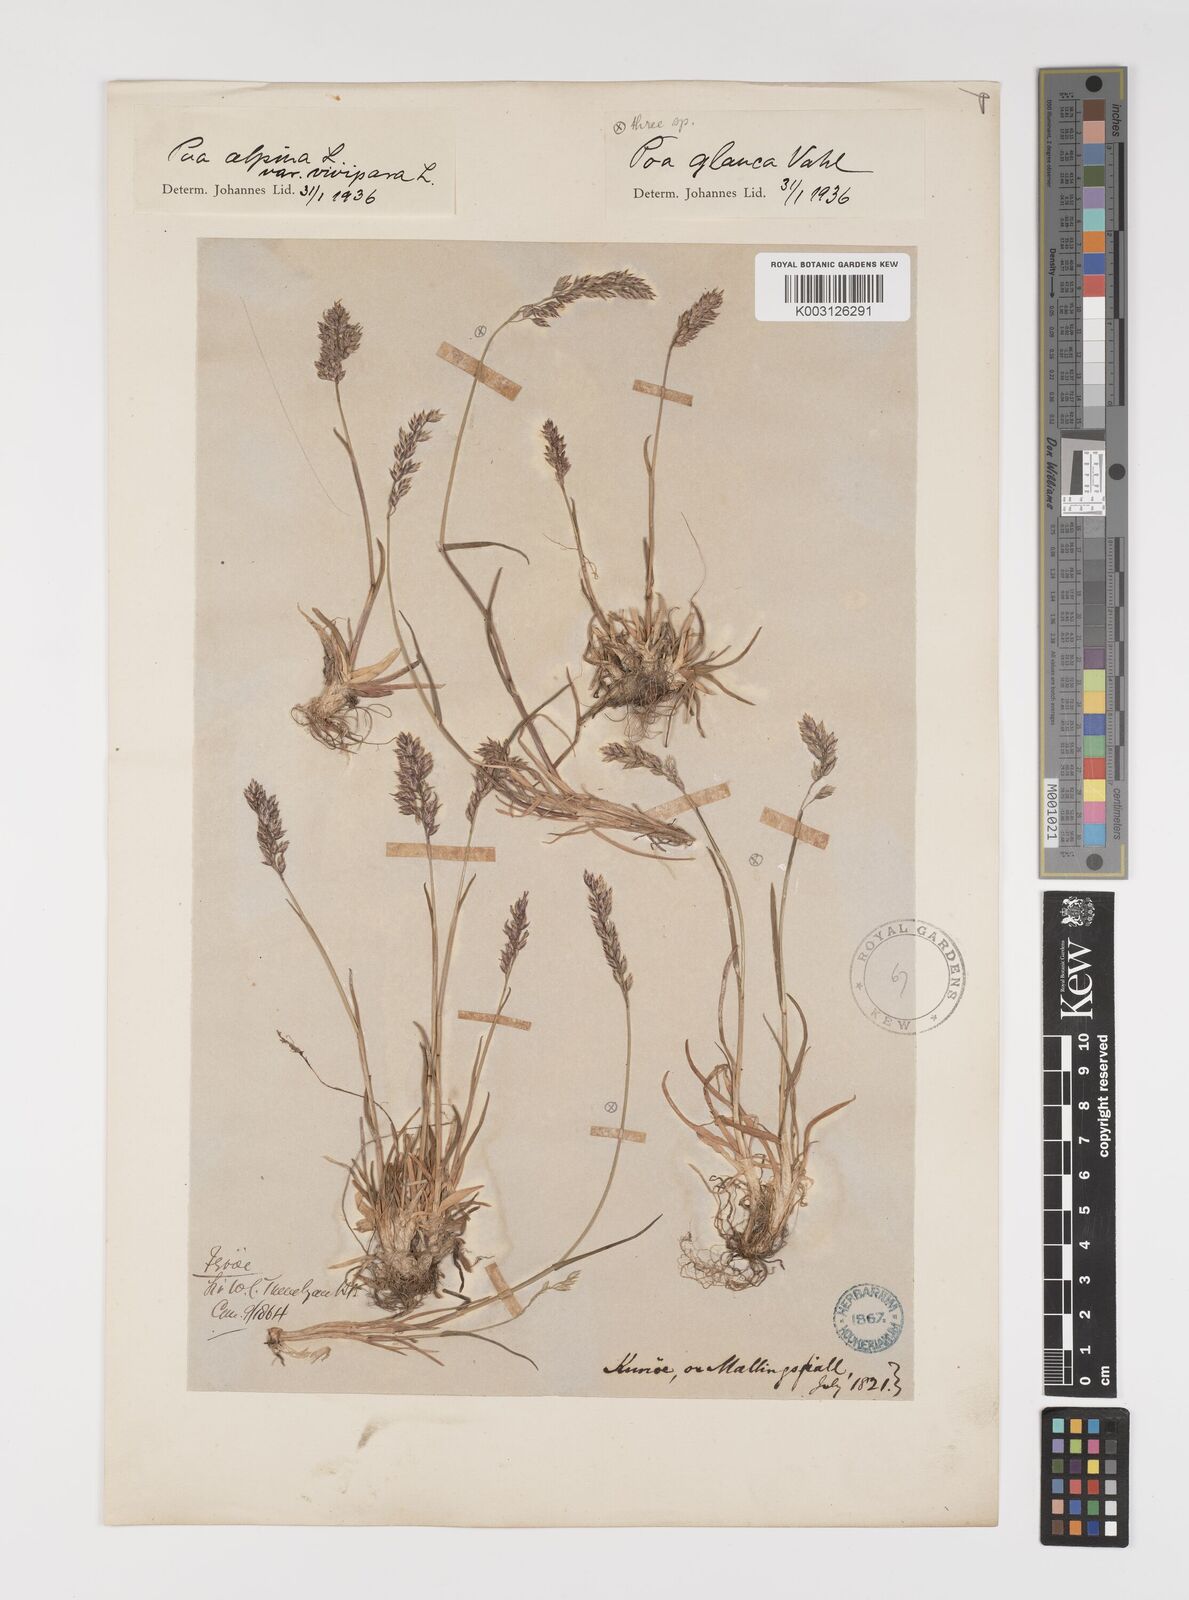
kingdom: Plantae
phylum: Tracheophyta
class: Liliopsida
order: Poales
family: Poaceae
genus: Poa
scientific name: Poa glauca
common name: Glaucous bluegrass
